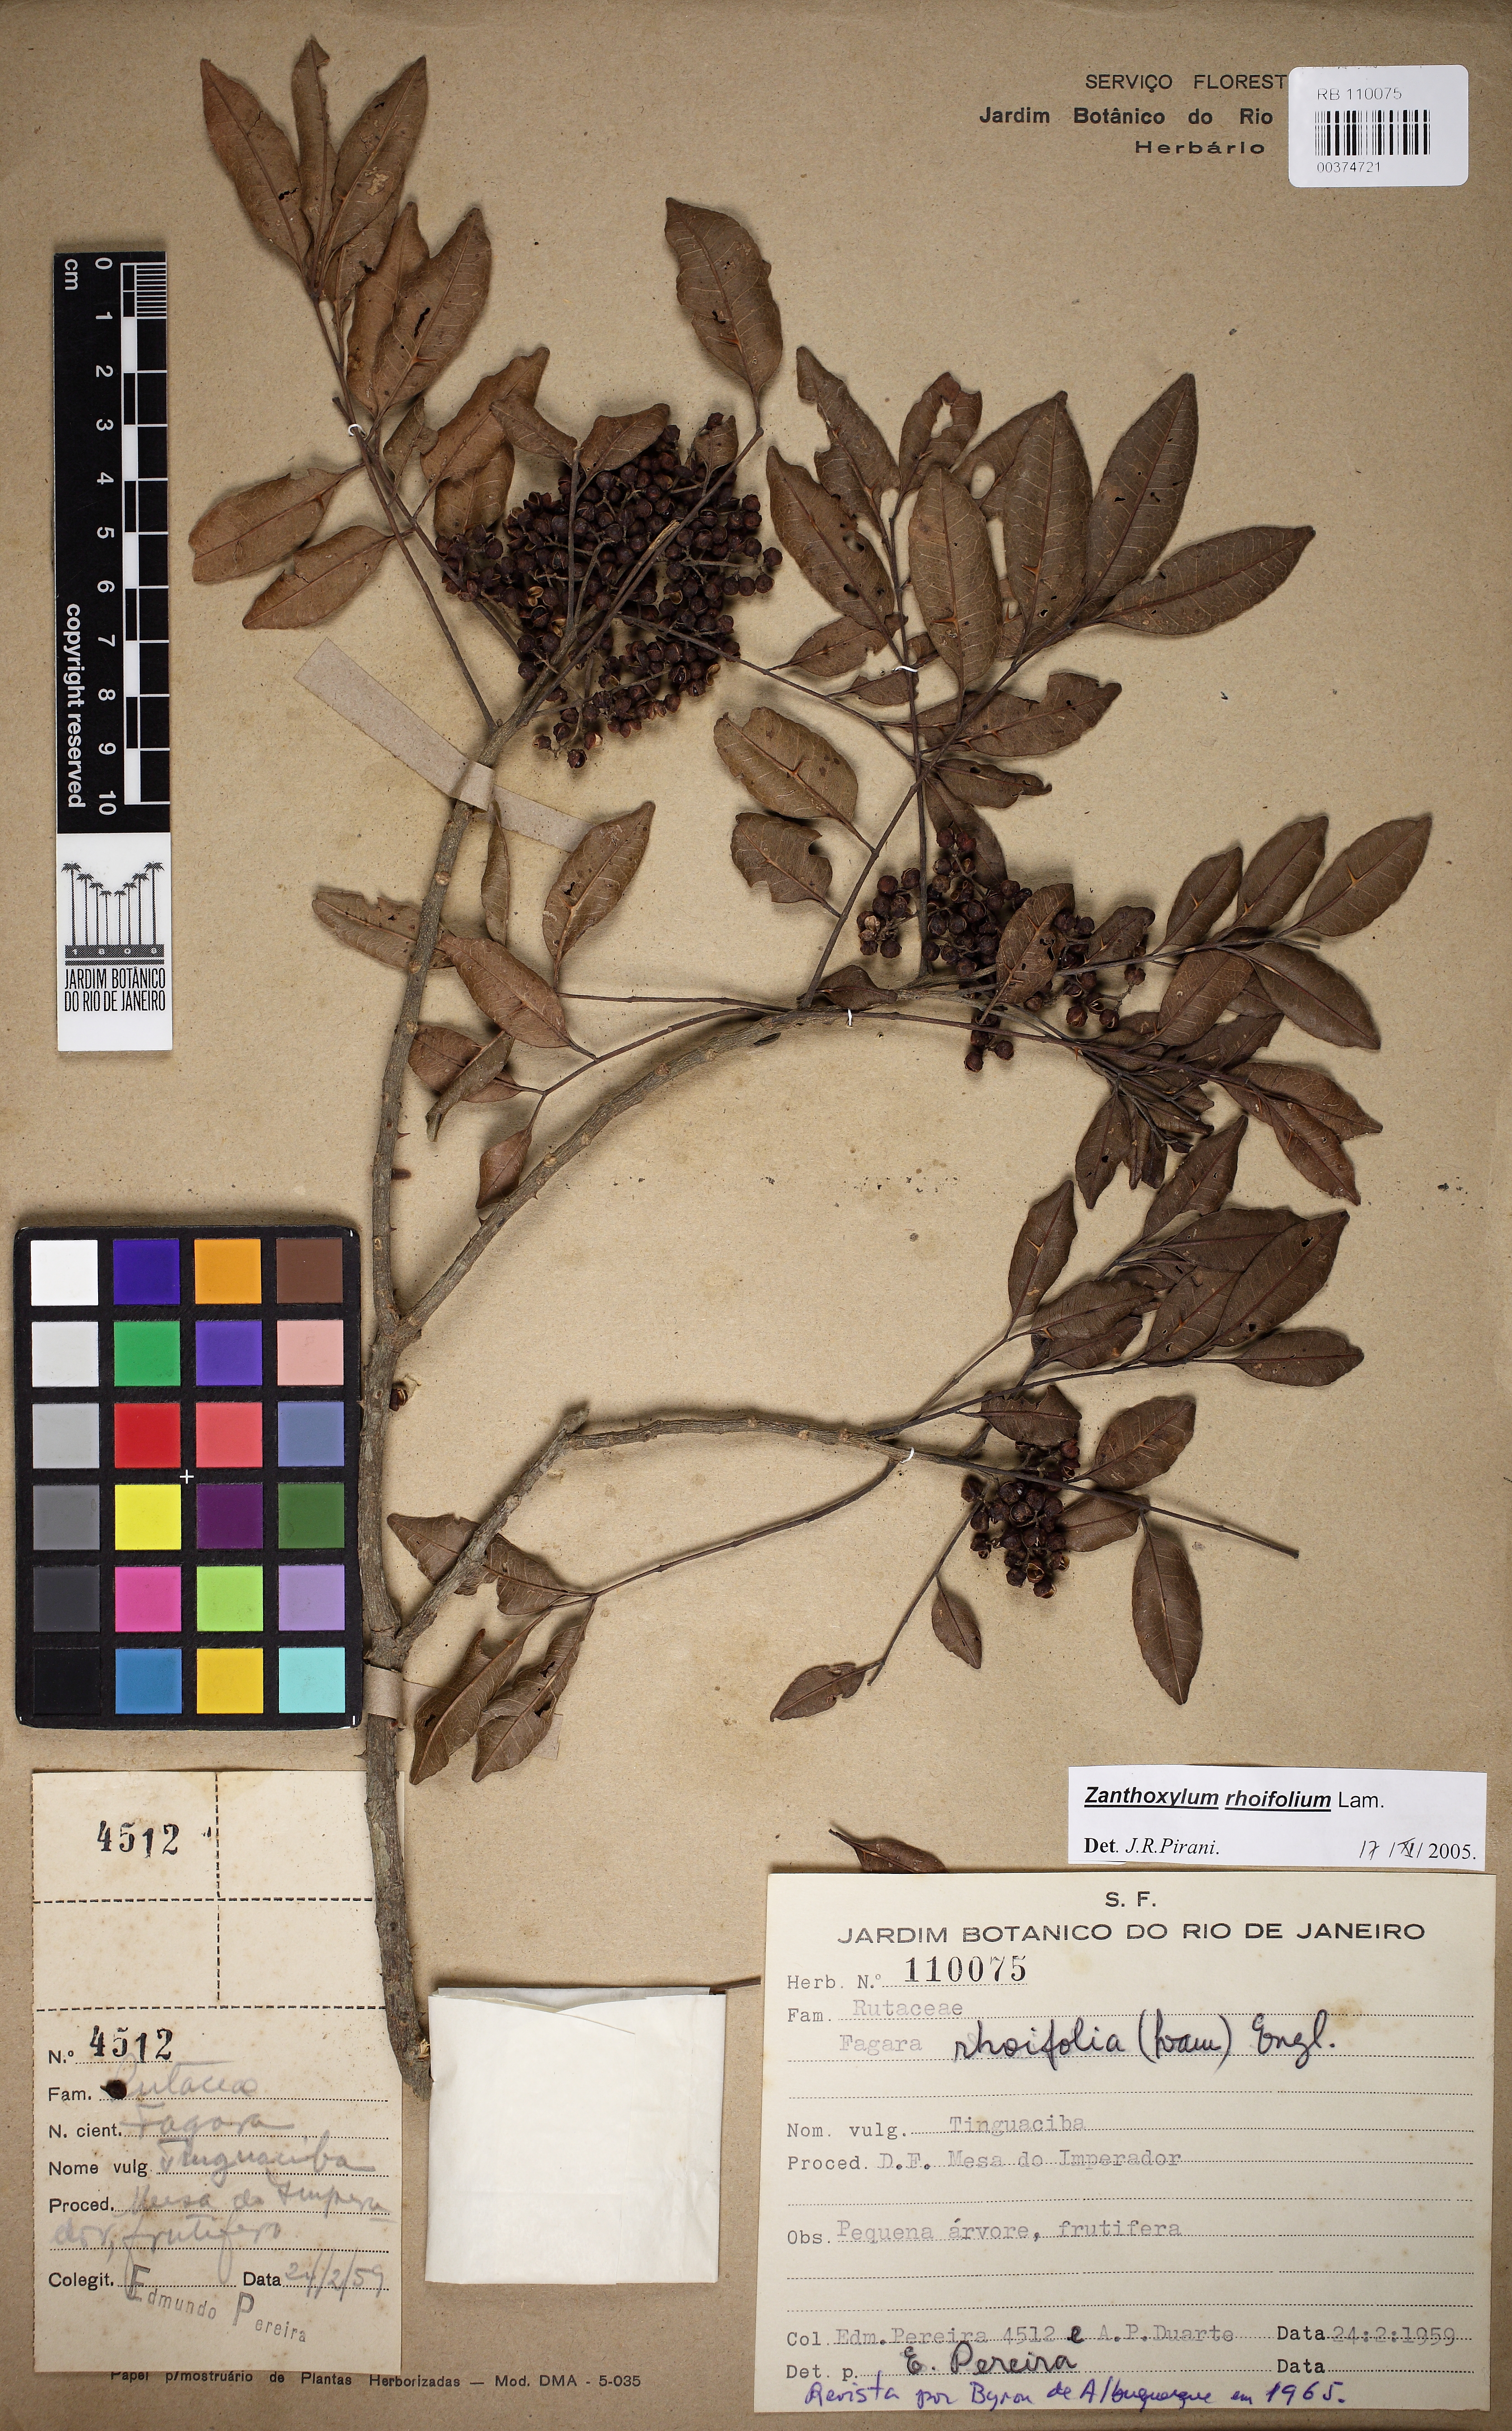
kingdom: Plantae
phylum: Tracheophyta
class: Magnoliopsida
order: Sapindales
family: Rutaceae
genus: Zanthoxylum
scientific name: Zanthoxylum rhoifolium
